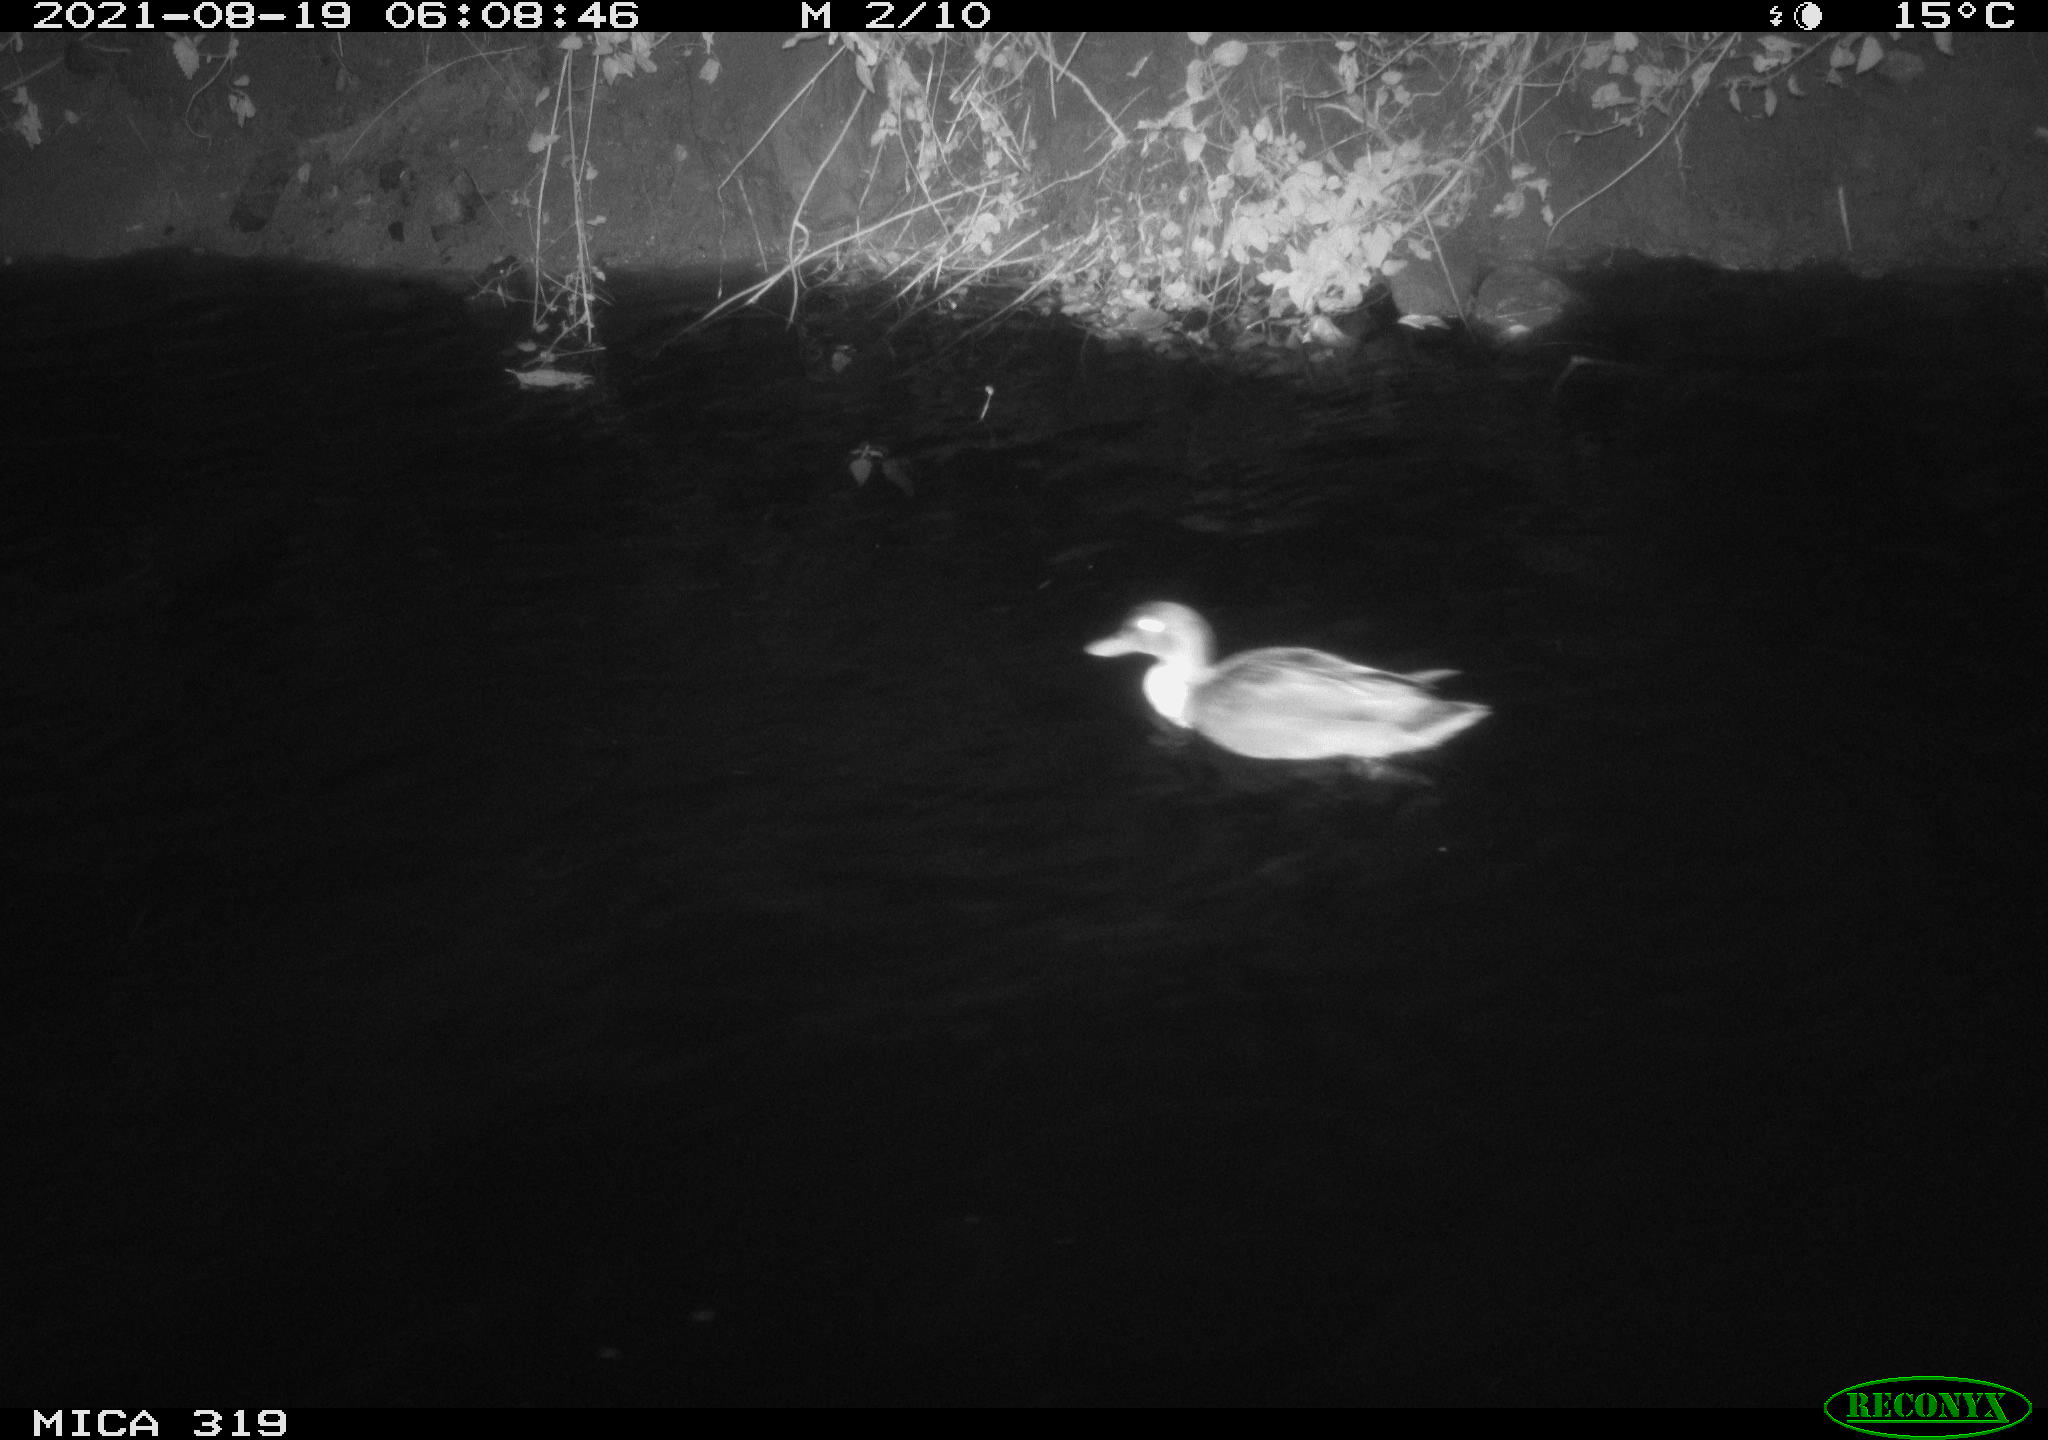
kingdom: Animalia
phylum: Chordata
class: Aves
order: Anseriformes
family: Anatidae
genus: Anas
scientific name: Anas platyrhynchos
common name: Mallard
